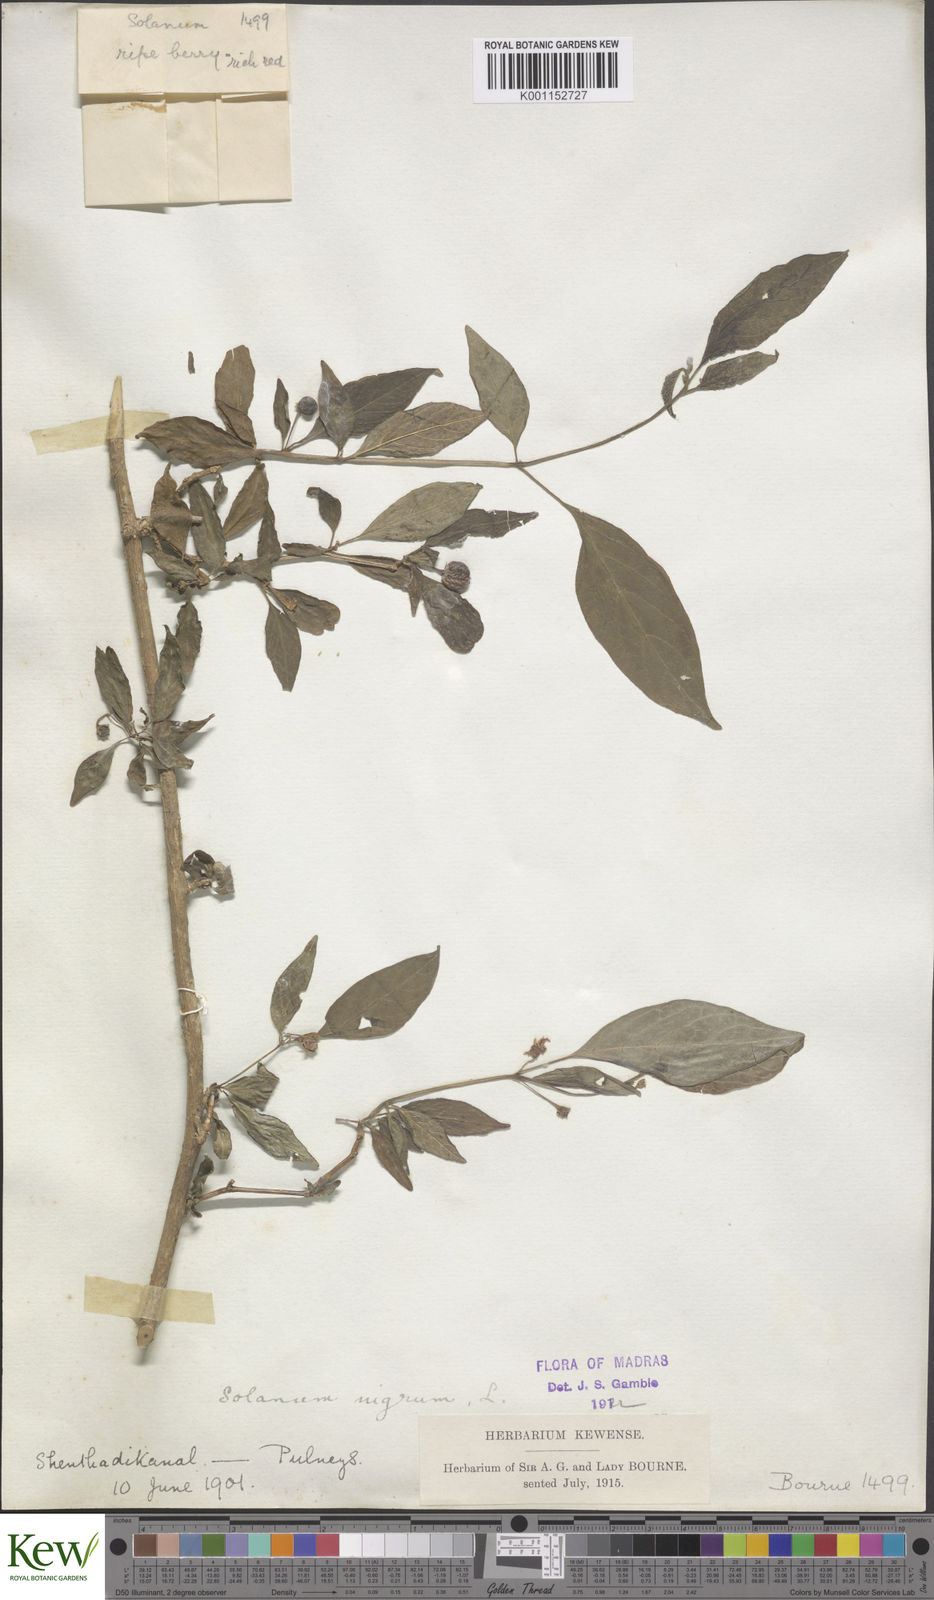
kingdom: Plantae
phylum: Tracheophyta
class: Magnoliopsida
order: Solanales
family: Solanaceae
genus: Solanum
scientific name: Solanum nigrum
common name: Black nightshade
